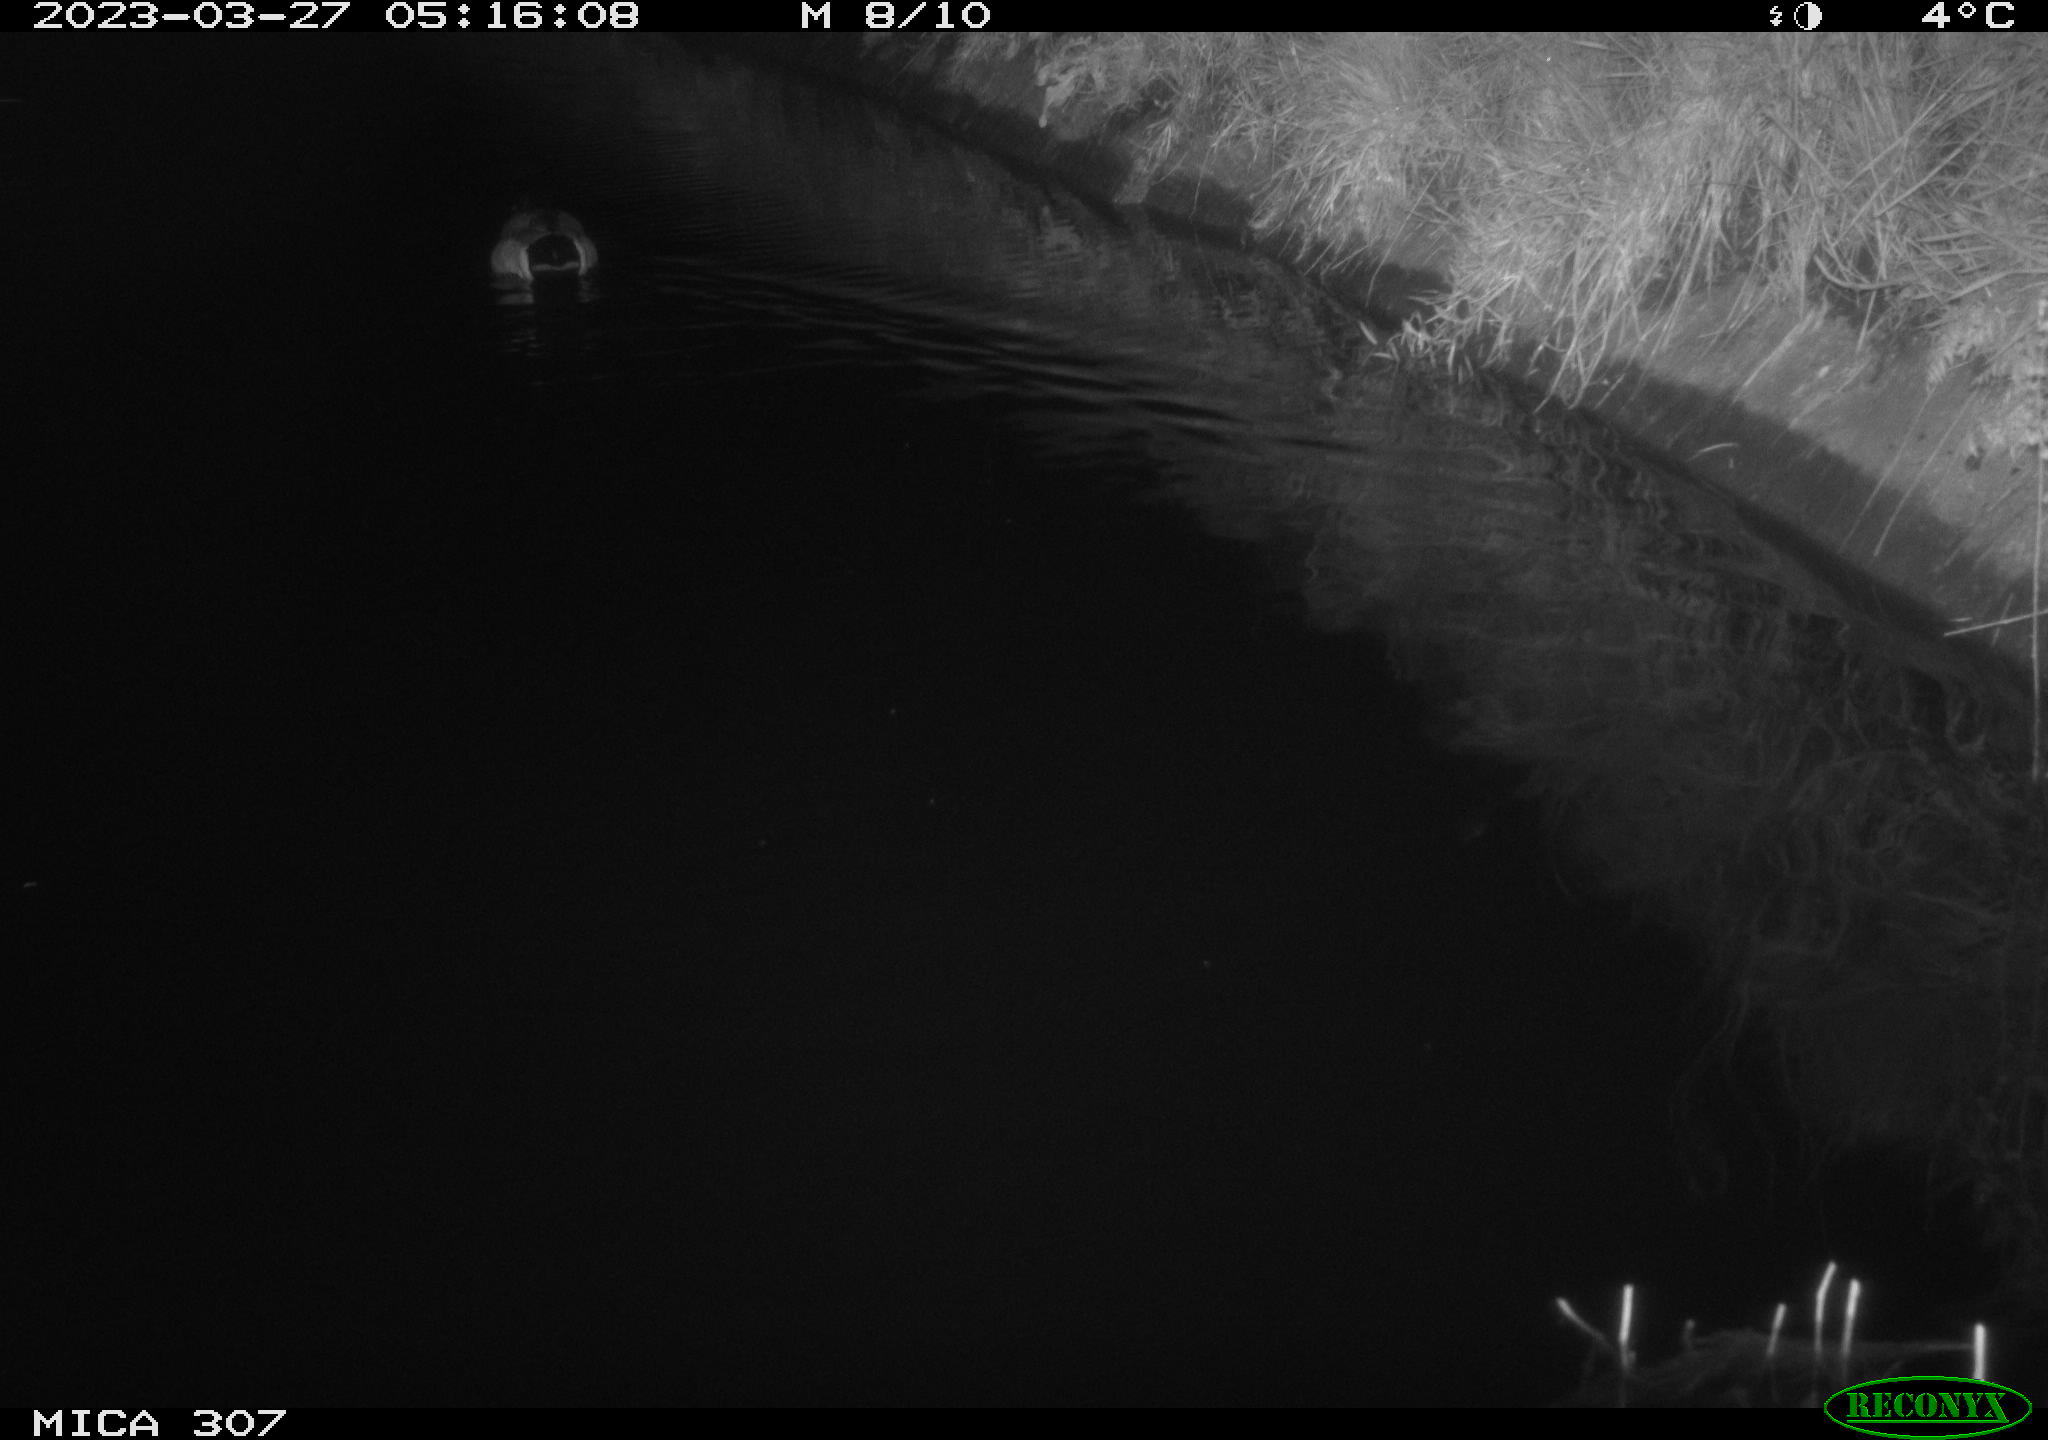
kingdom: Animalia
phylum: Chordata
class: Aves
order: Anseriformes
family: Anatidae
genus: Anas
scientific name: Anas
